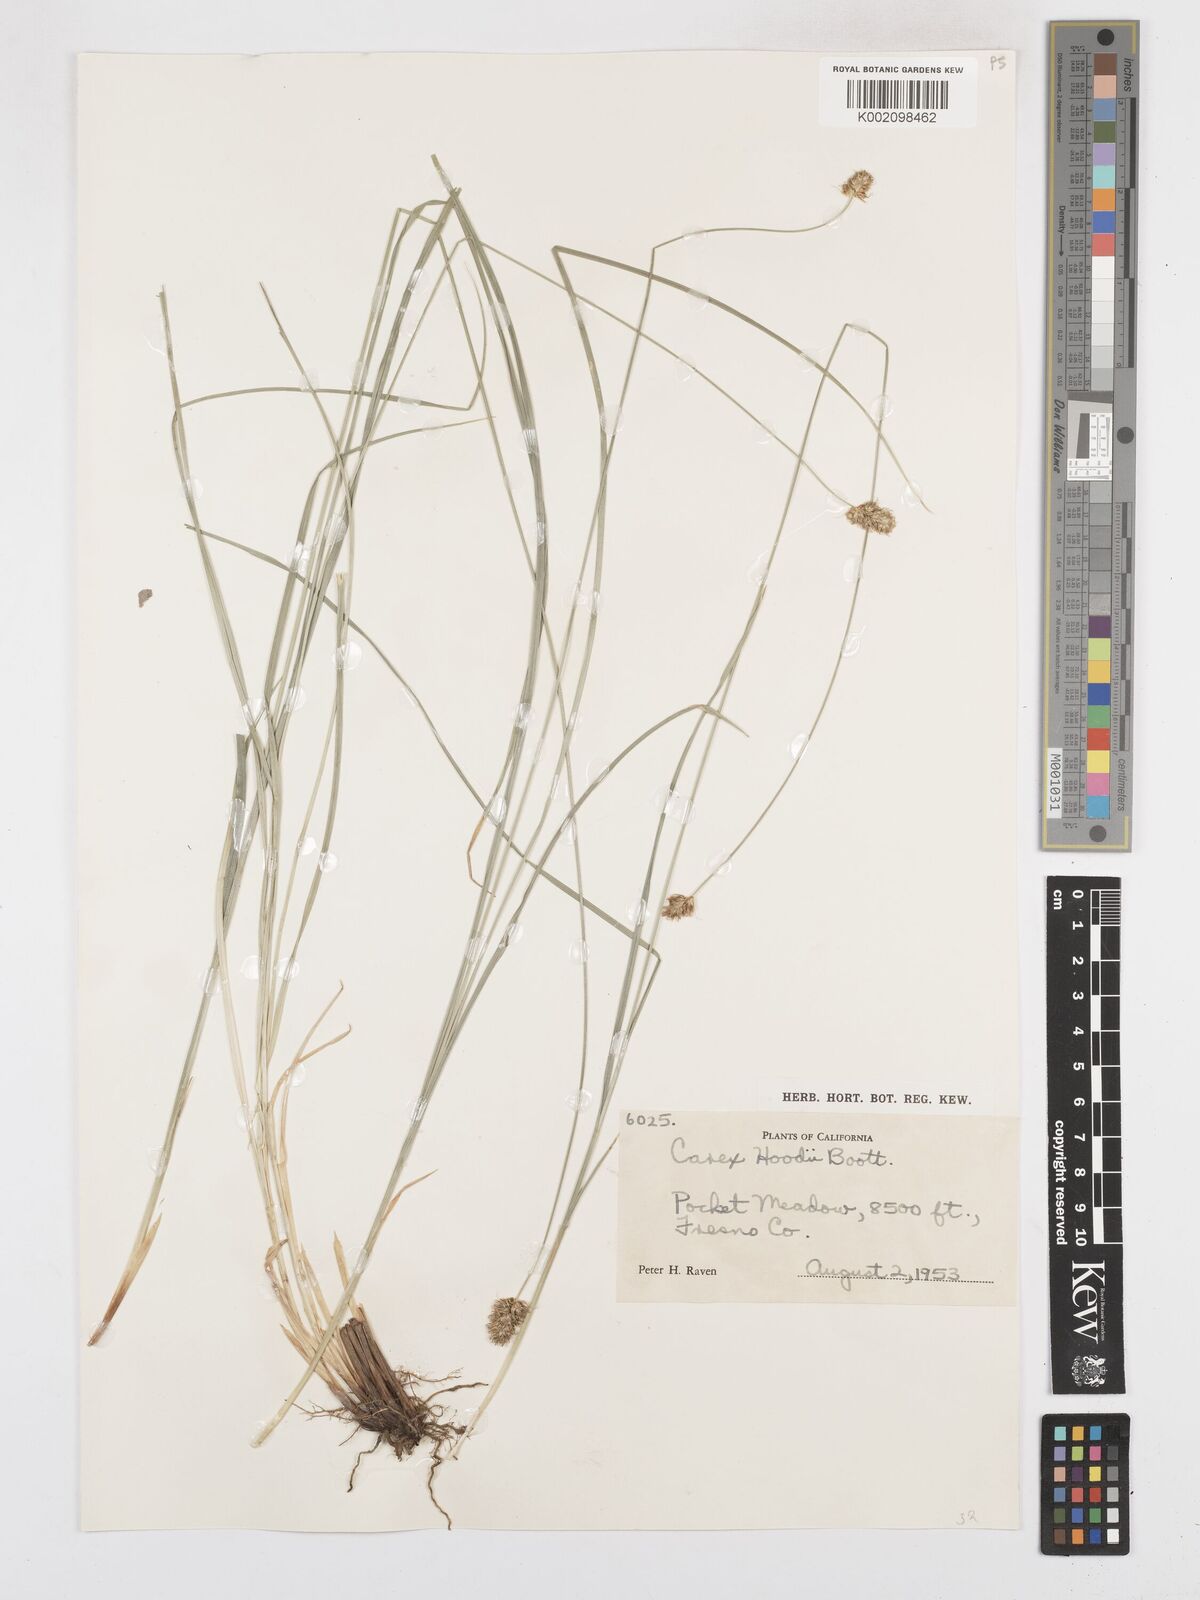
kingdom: Plantae
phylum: Tracheophyta
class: Liliopsida
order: Poales
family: Cyperaceae
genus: Carex
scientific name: Carex hoodii
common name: Hood's sedge
